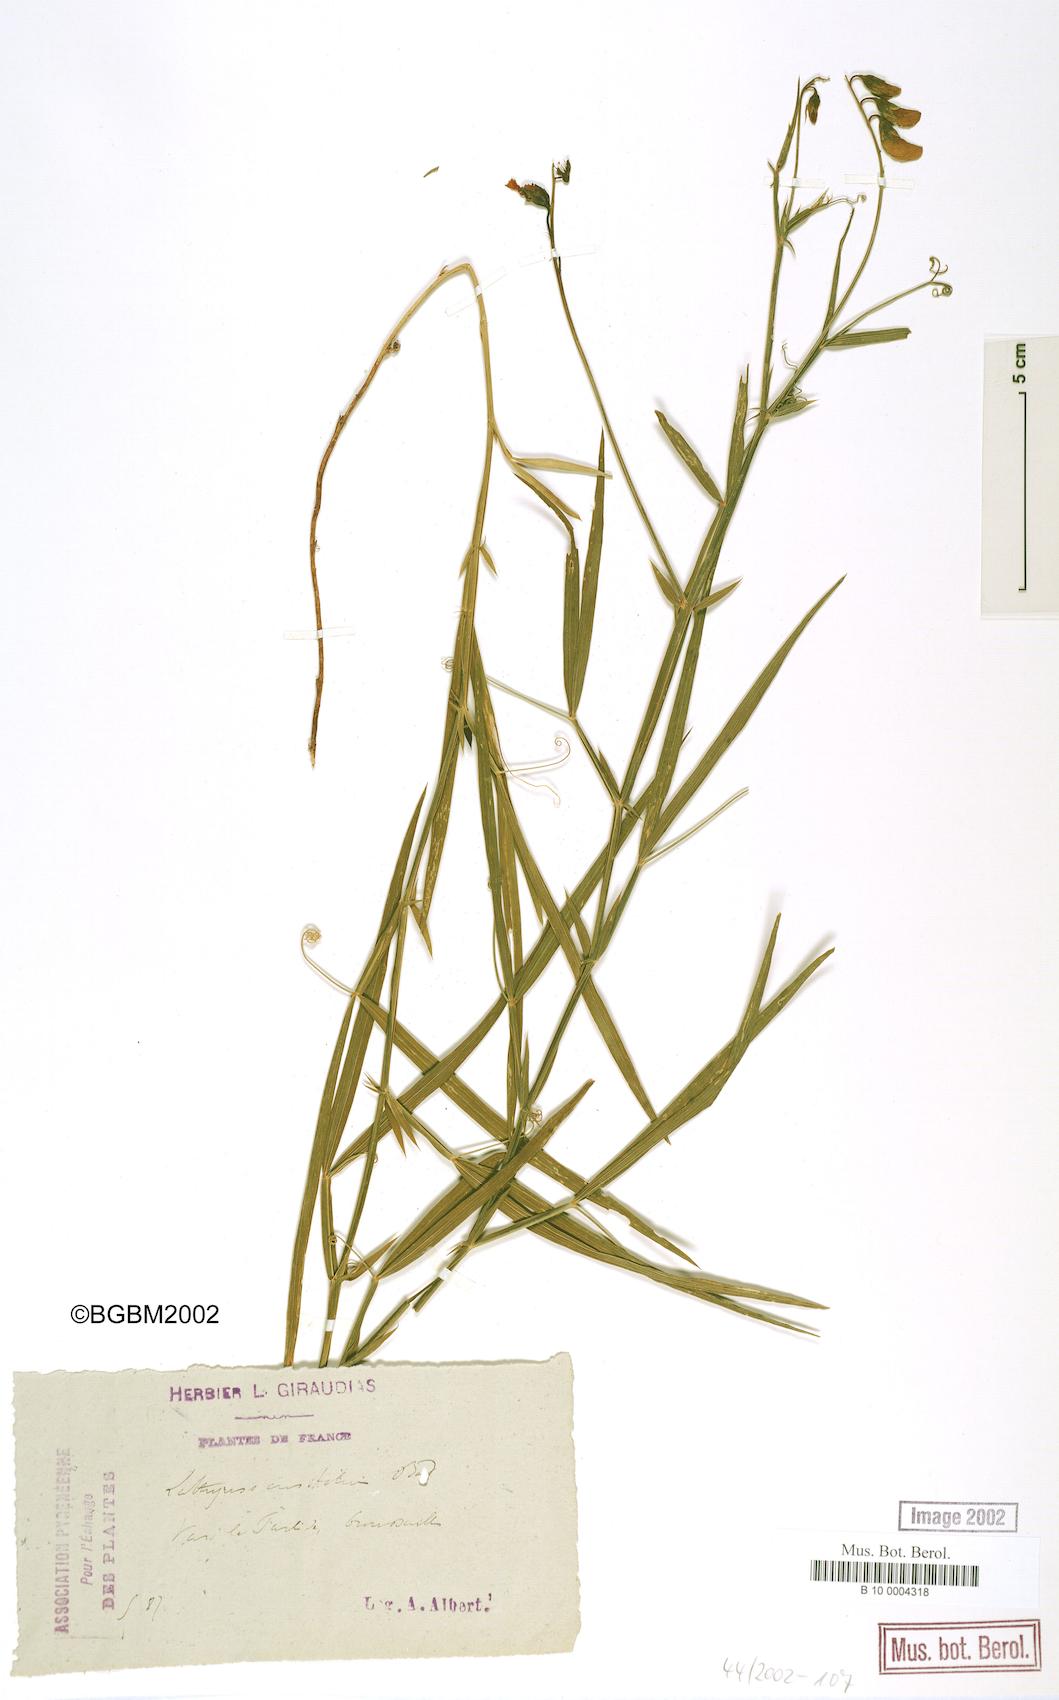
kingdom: Plantae
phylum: Tracheophyta
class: Magnoliopsida
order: Fabales
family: Fabaceae
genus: Lathyrus
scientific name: Lathyrus bauhini
